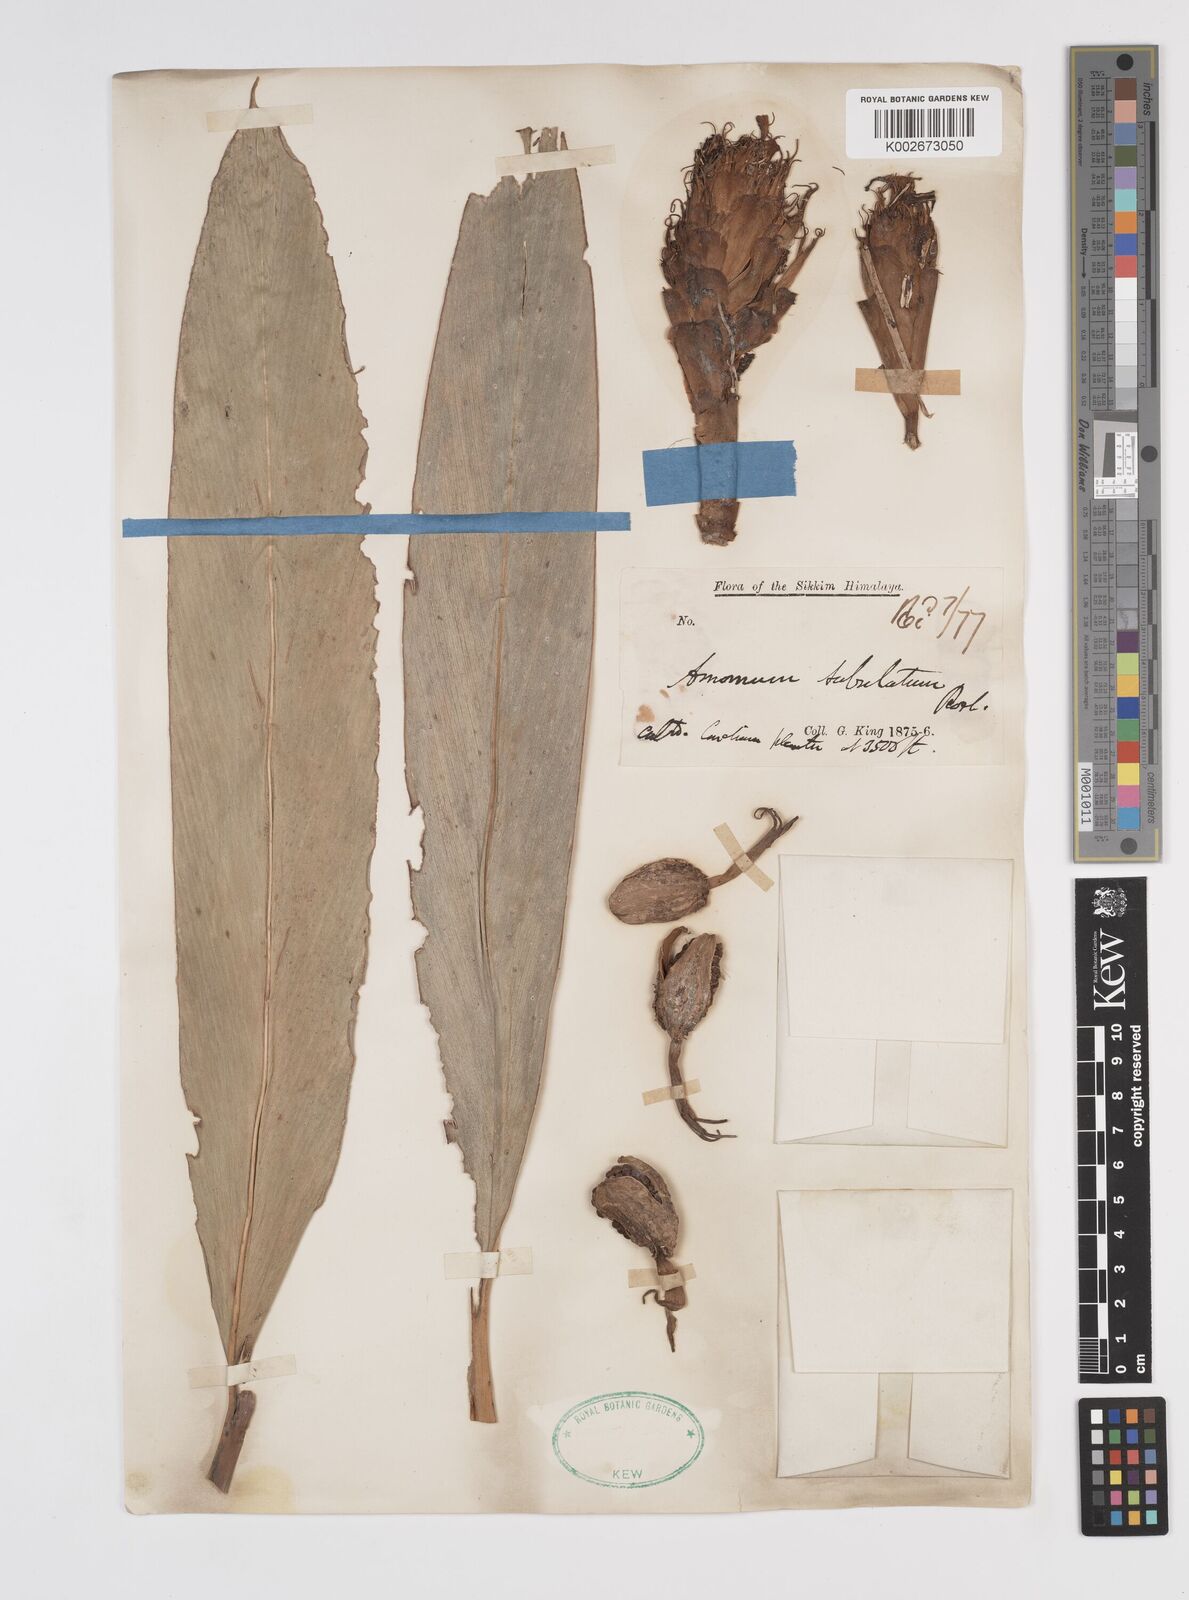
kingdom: Plantae
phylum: Tracheophyta
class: Liliopsida
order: Zingiberales
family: Zingiberaceae
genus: Amomum
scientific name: Amomum subulatum
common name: Black cardamom
